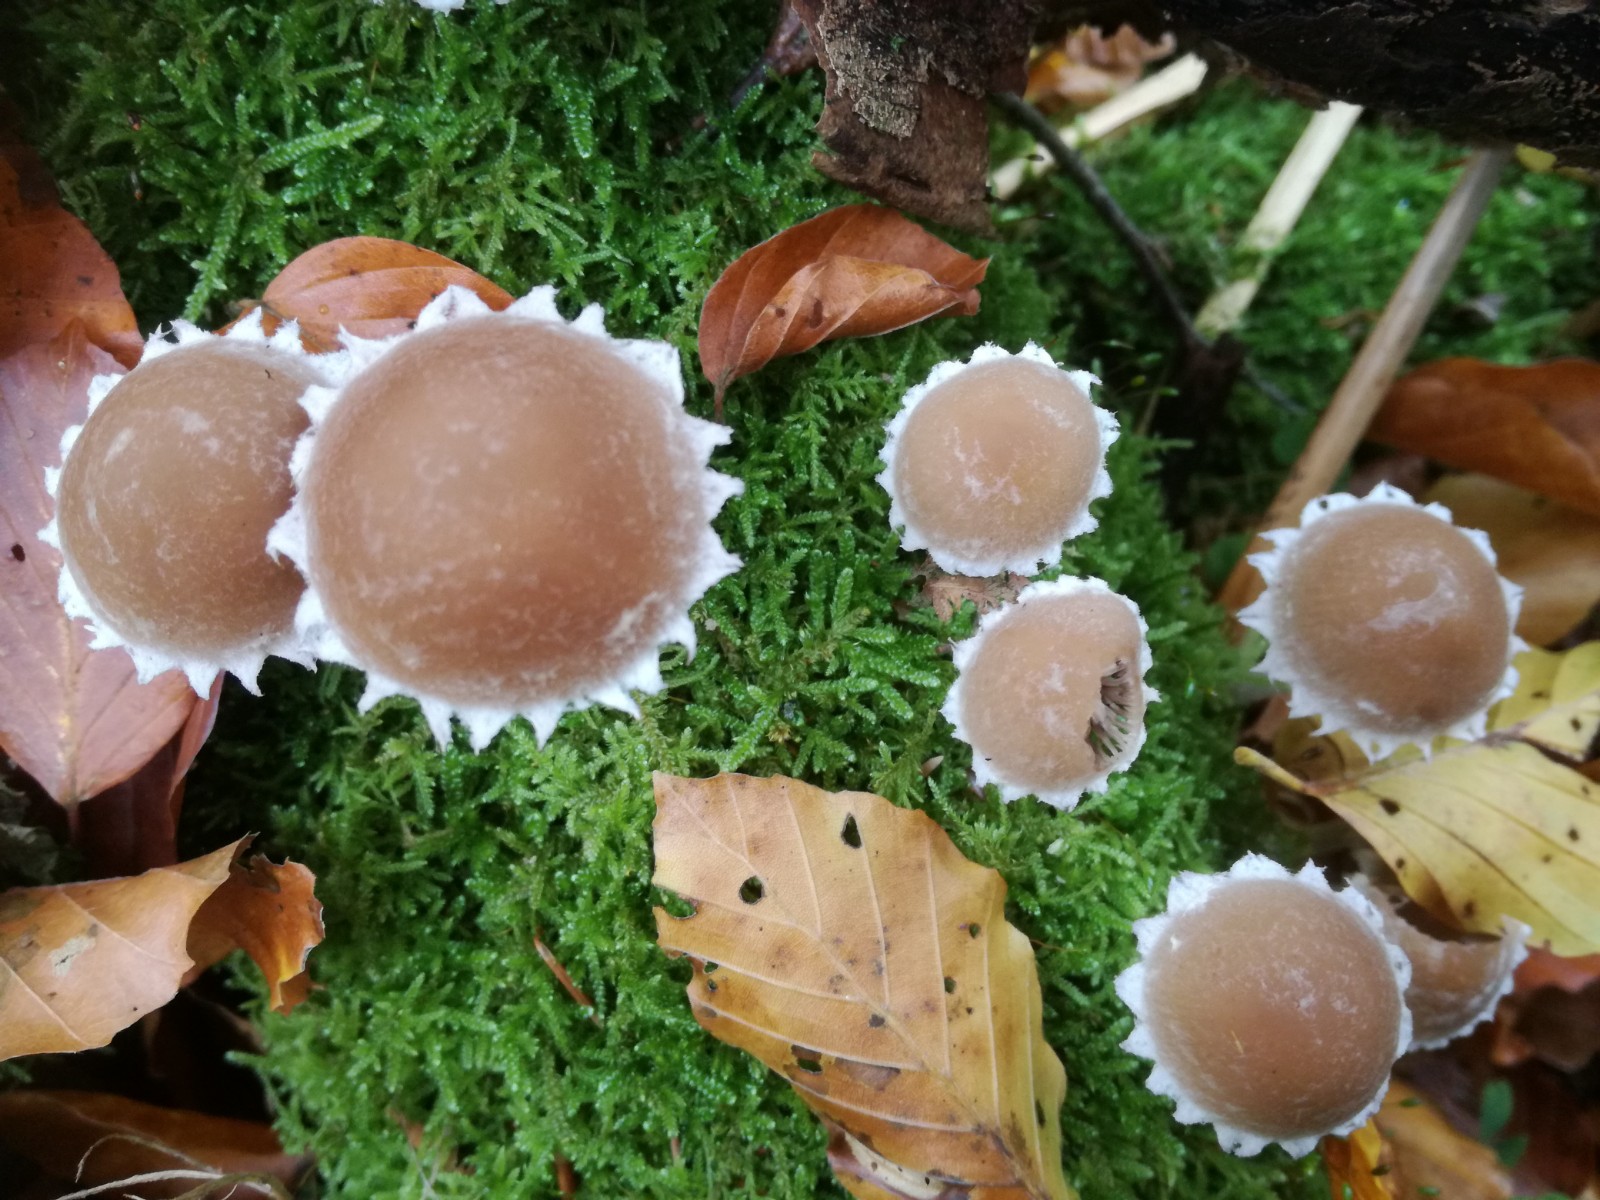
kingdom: Fungi
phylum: Basidiomycota
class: Agaricomycetes
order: Agaricales
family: Psathyrellaceae
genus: Psathyrella
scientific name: Psathyrella spintrigeroides
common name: tandet mørkhat
